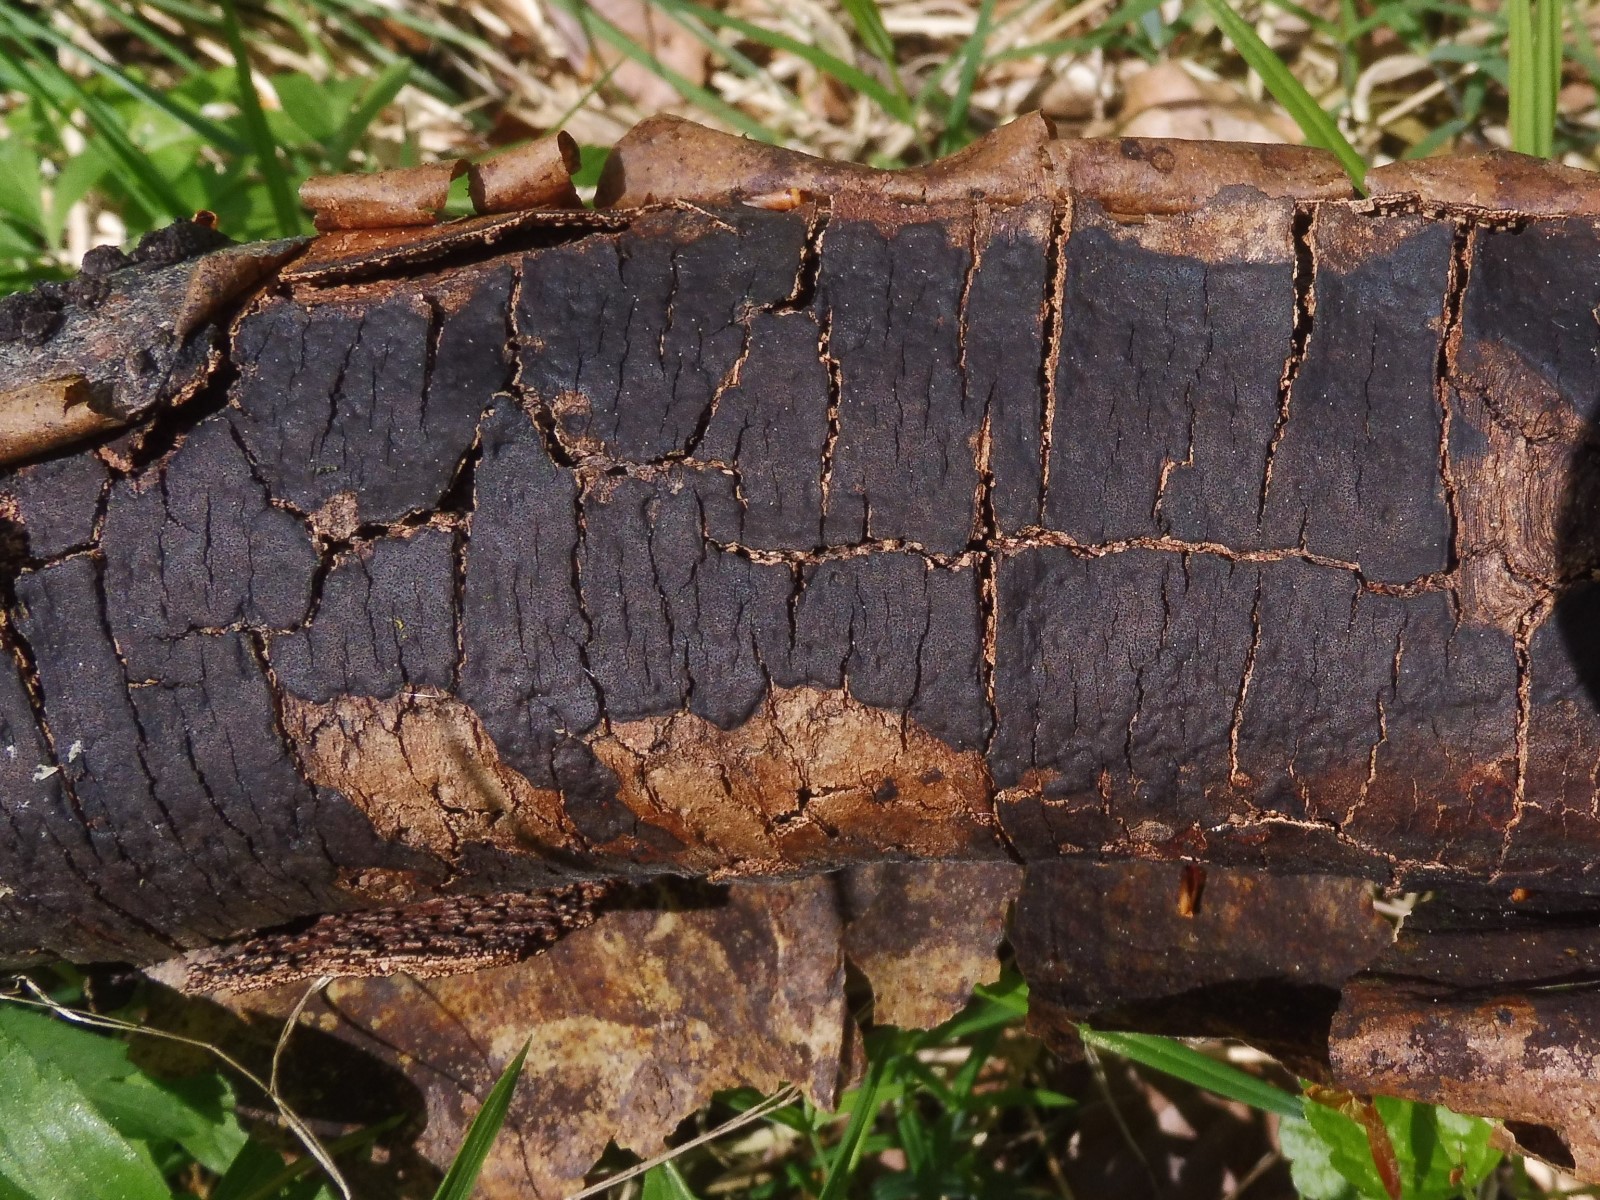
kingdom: Fungi
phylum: Ascomycota
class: Sordariomycetes
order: Xylariales
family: Diatrypaceae
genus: Diatrype
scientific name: Diatrype decorticata
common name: barksprænger-kulskorpe
